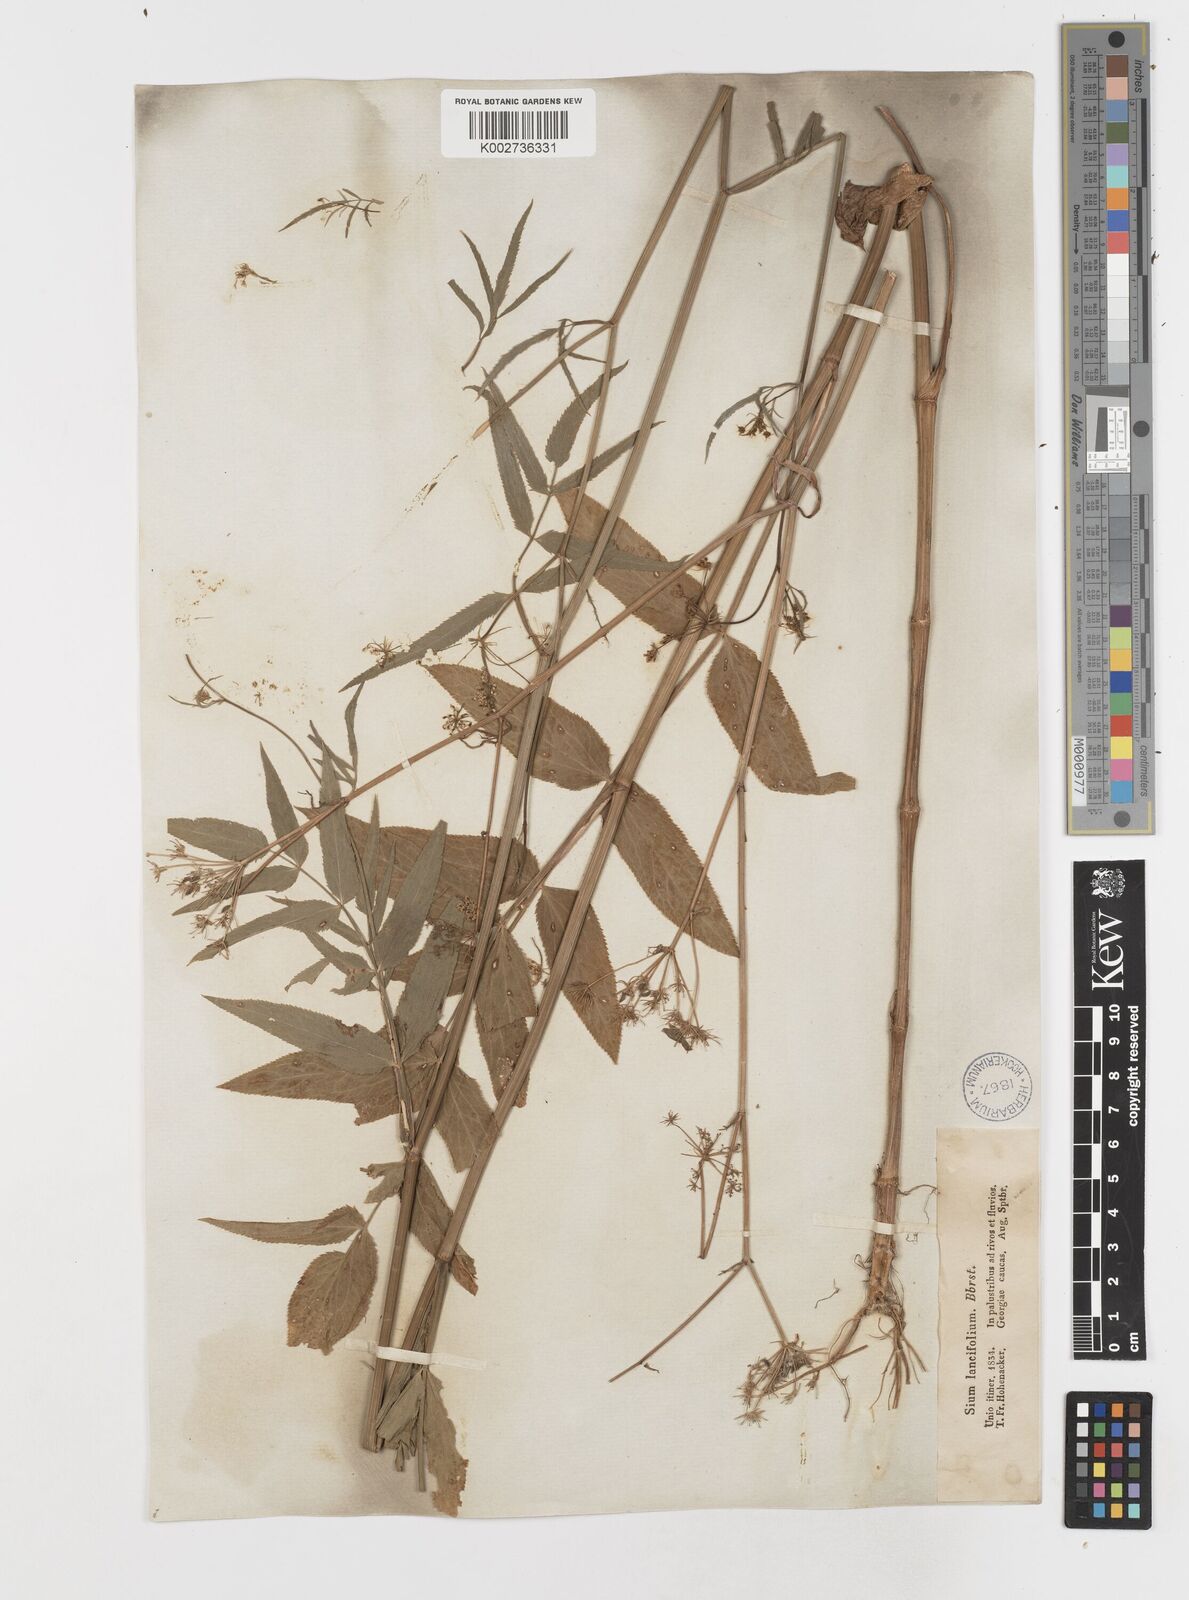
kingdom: Plantae
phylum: Tracheophyta
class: Magnoliopsida
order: Apiales
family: Apiaceae
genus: Sium
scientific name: Sium sisarum
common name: Skirret
